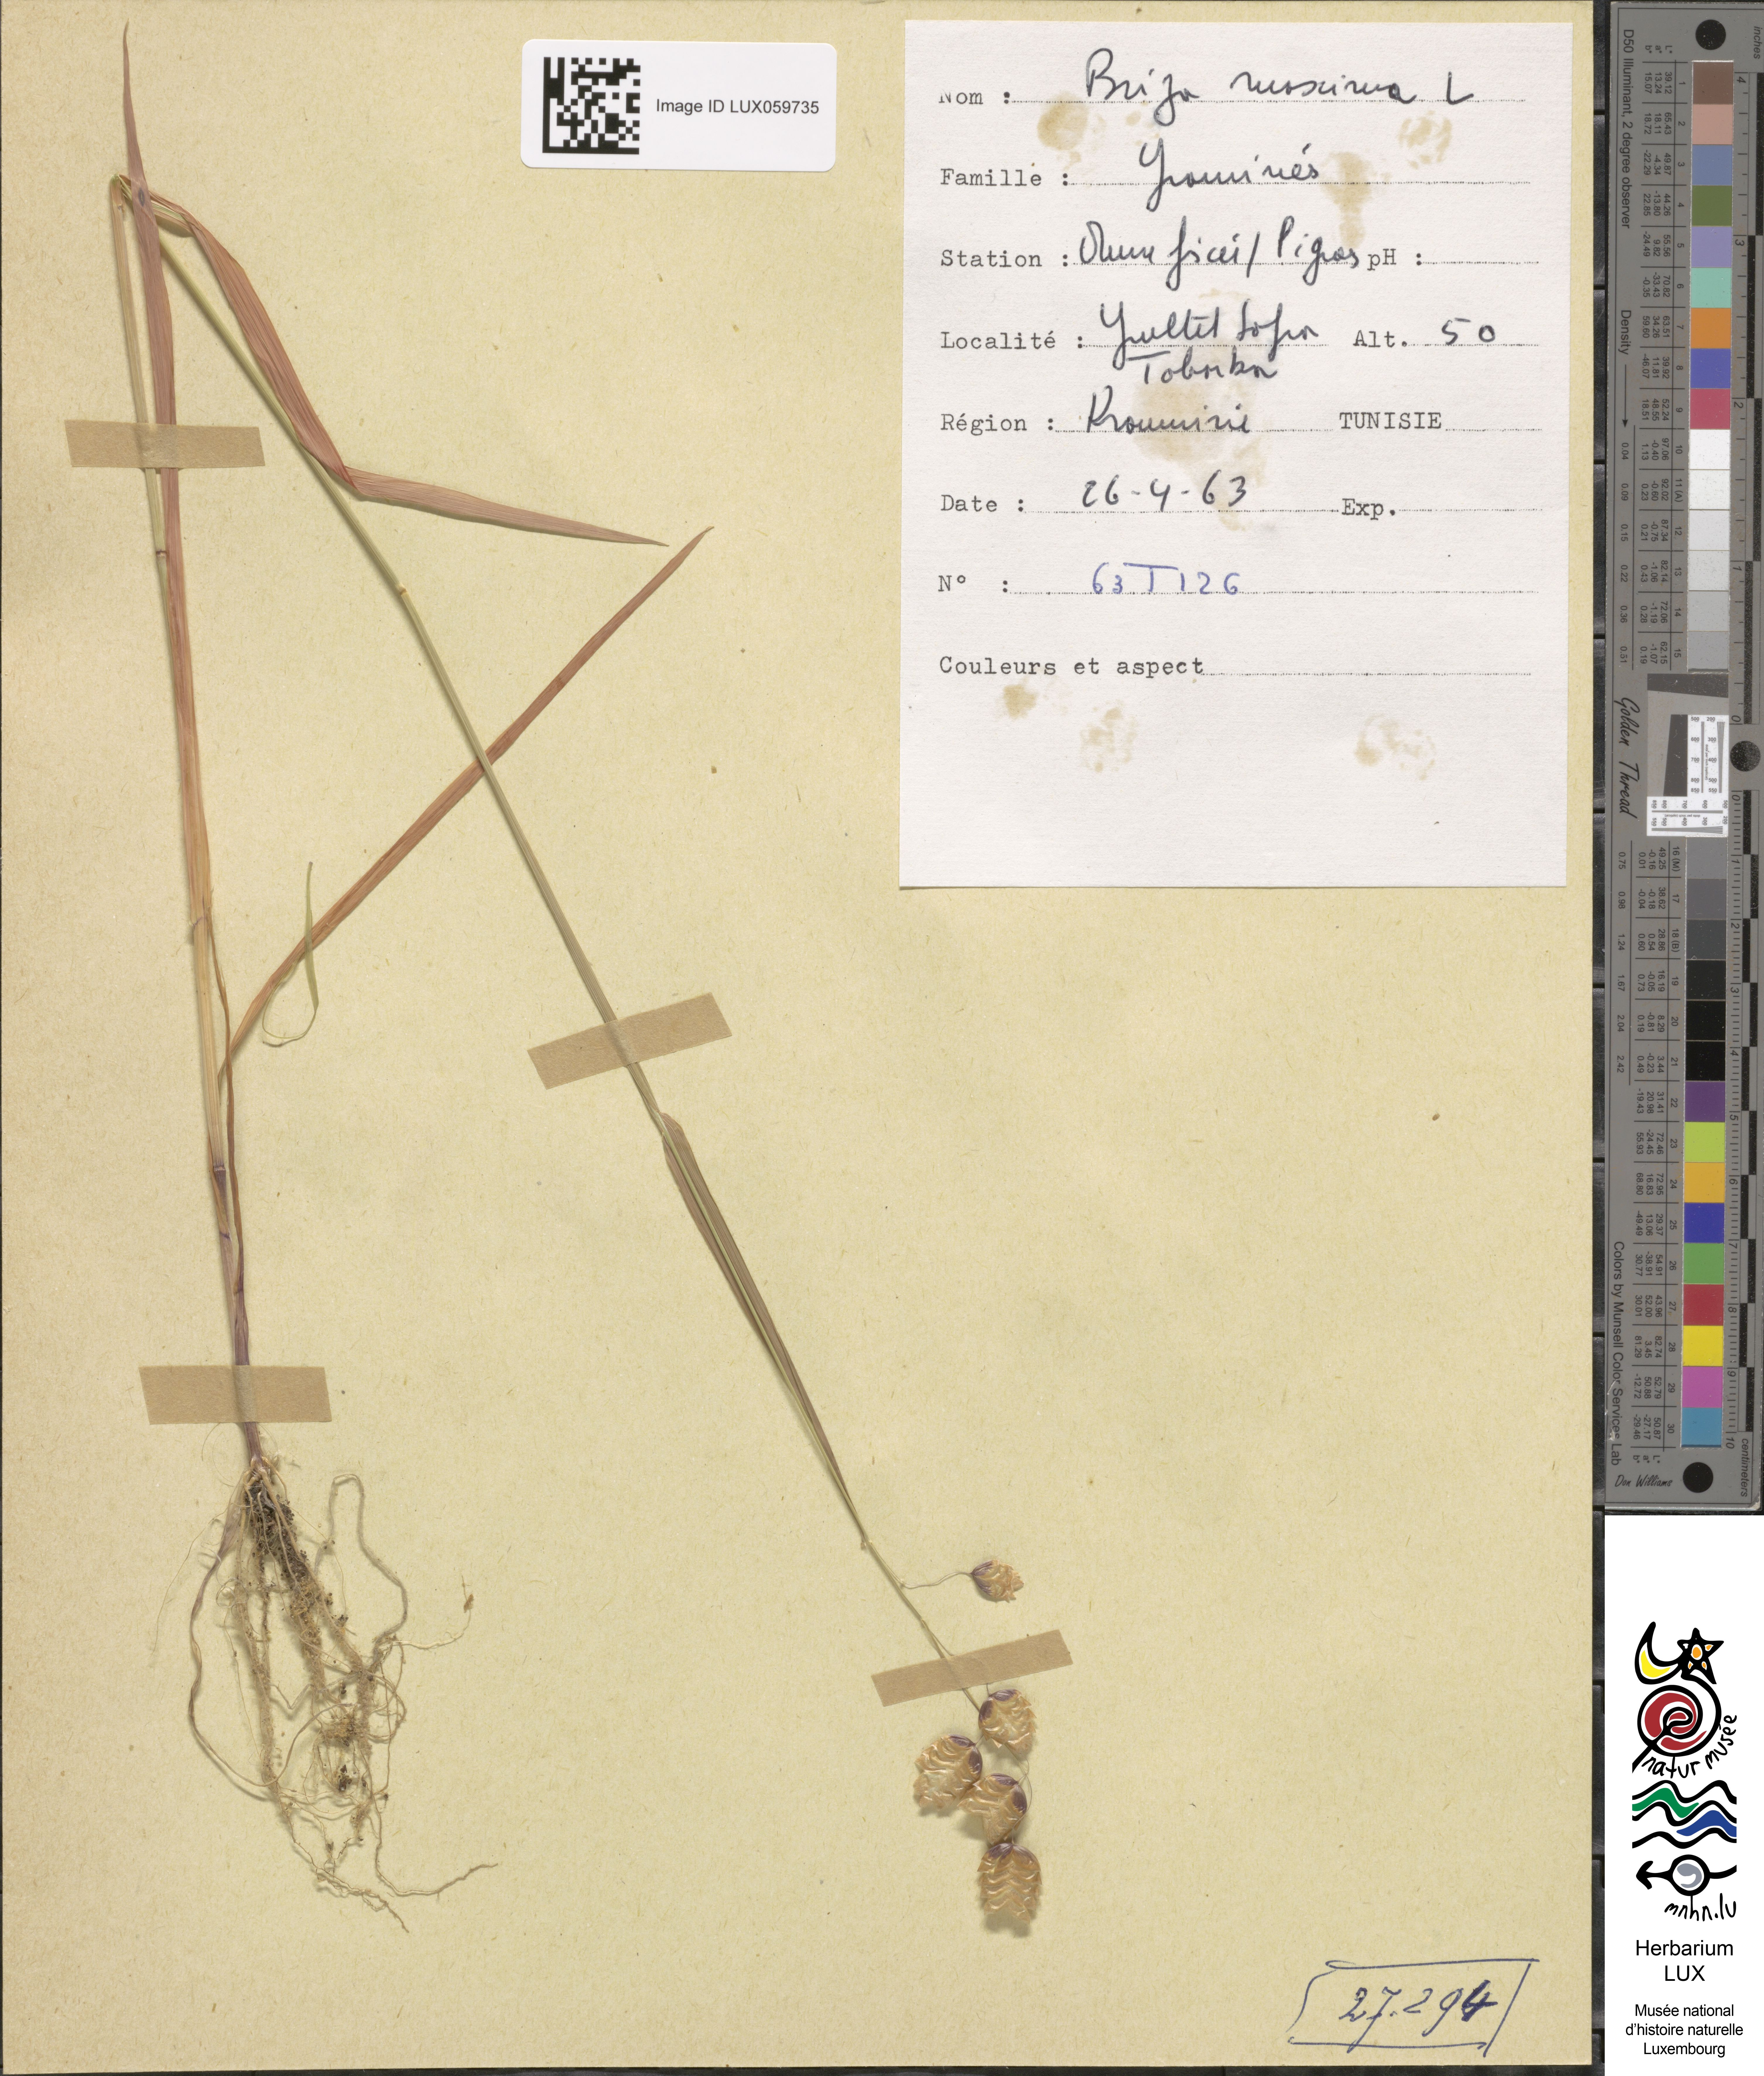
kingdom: Plantae
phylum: Tracheophyta
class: Liliopsida
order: Poales
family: Poaceae
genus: Briza
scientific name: Briza maxima
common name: Big quakinggrass
